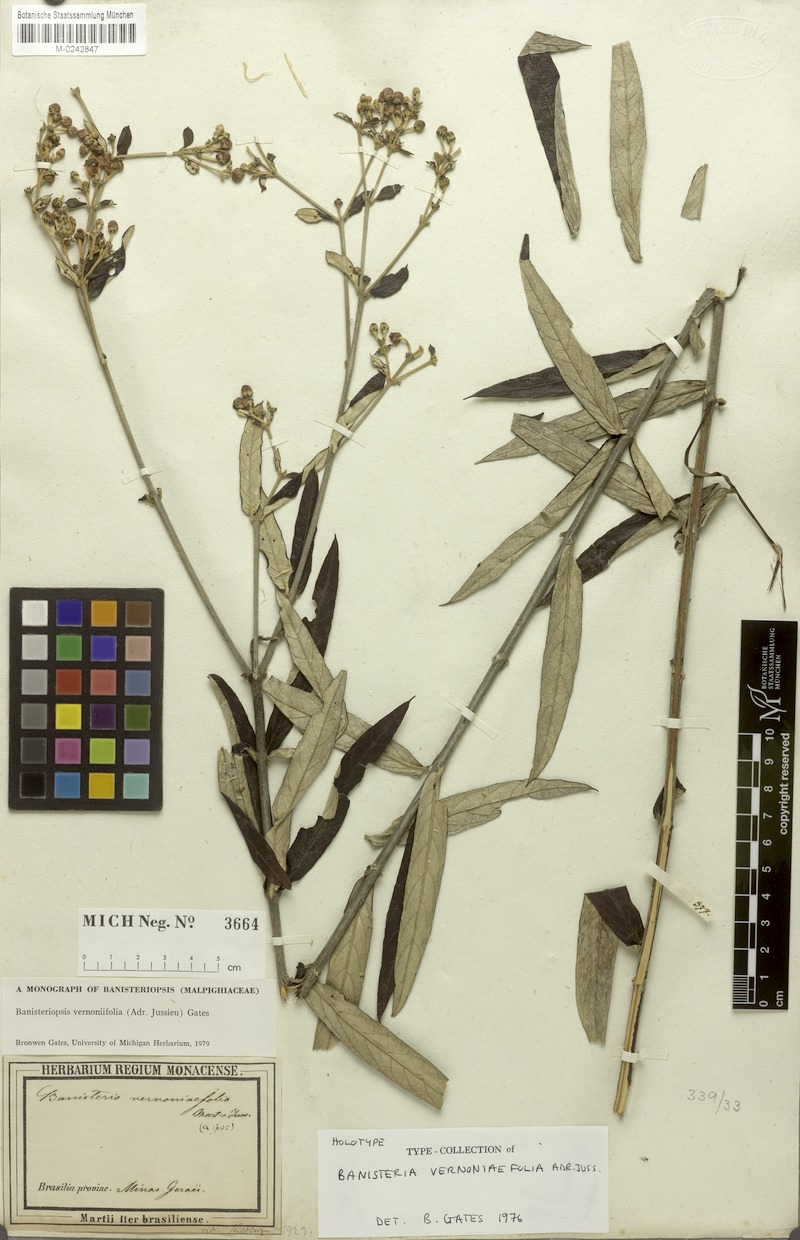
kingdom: Plantae
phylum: Tracheophyta
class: Magnoliopsida
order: Malpighiales
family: Malpighiaceae
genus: Banisteriopsis
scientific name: Banisteriopsis vernoniifolia
